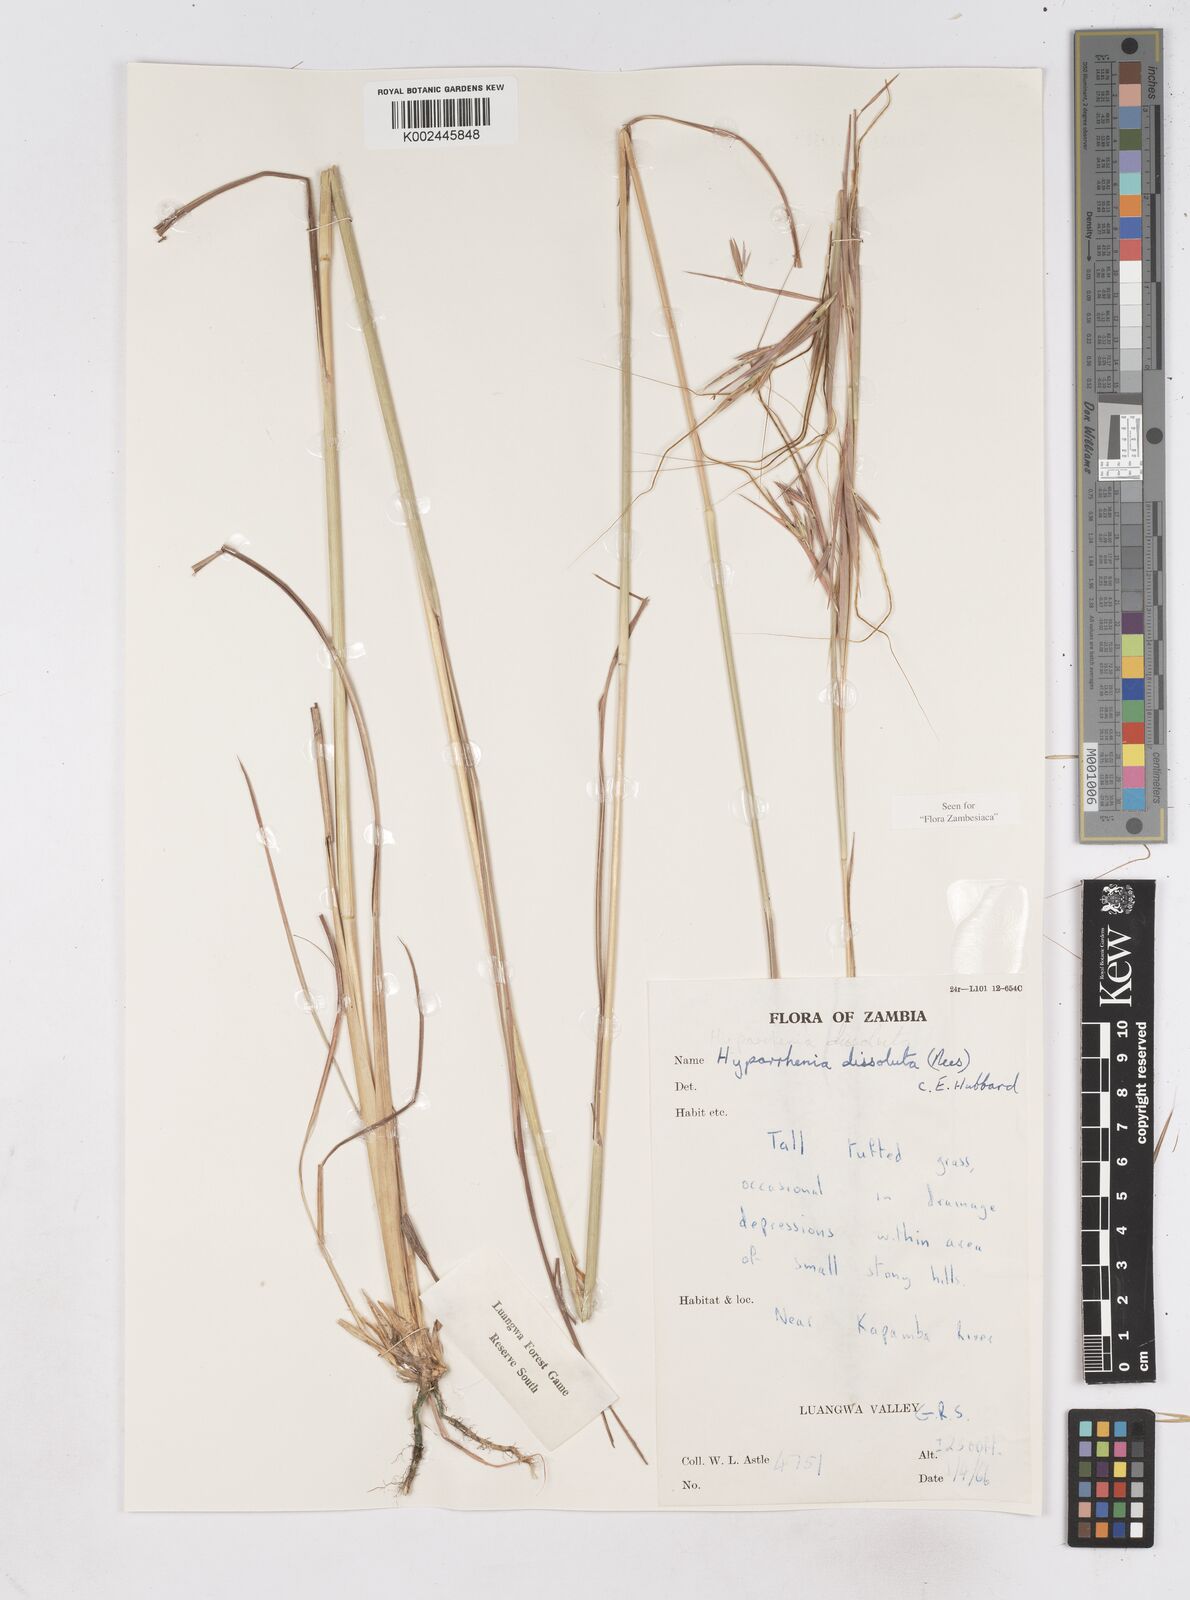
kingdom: Plantae
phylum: Tracheophyta
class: Liliopsida
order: Poales
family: Poaceae
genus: Hyperthelia
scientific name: Hyperthelia dissoluta
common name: Yellow thatching grass
